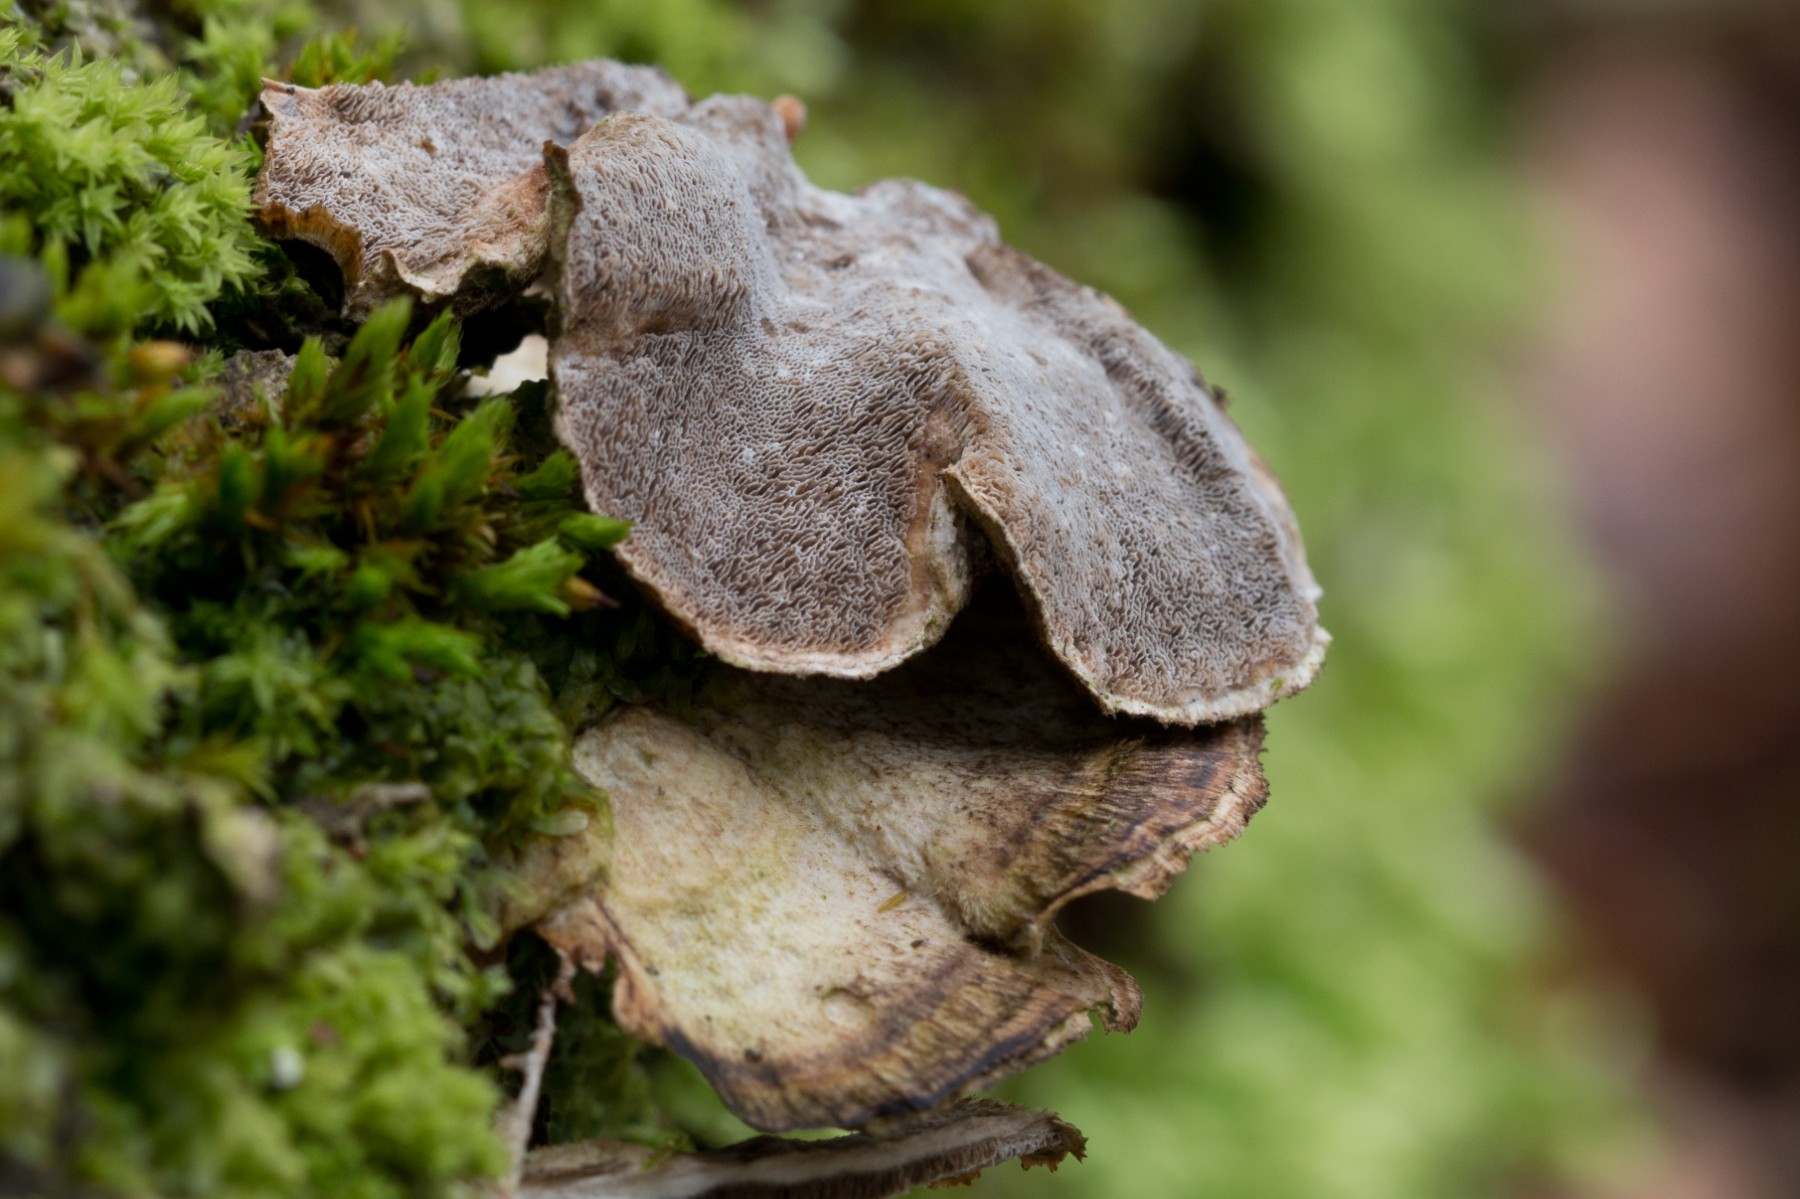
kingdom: Fungi
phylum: Basidiomycota
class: Agaricomycetes
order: Polyporales
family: Phanerochaetaceae
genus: Bjerkandera
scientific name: Bjerkandera adusta
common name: sveden sodporesvamp
